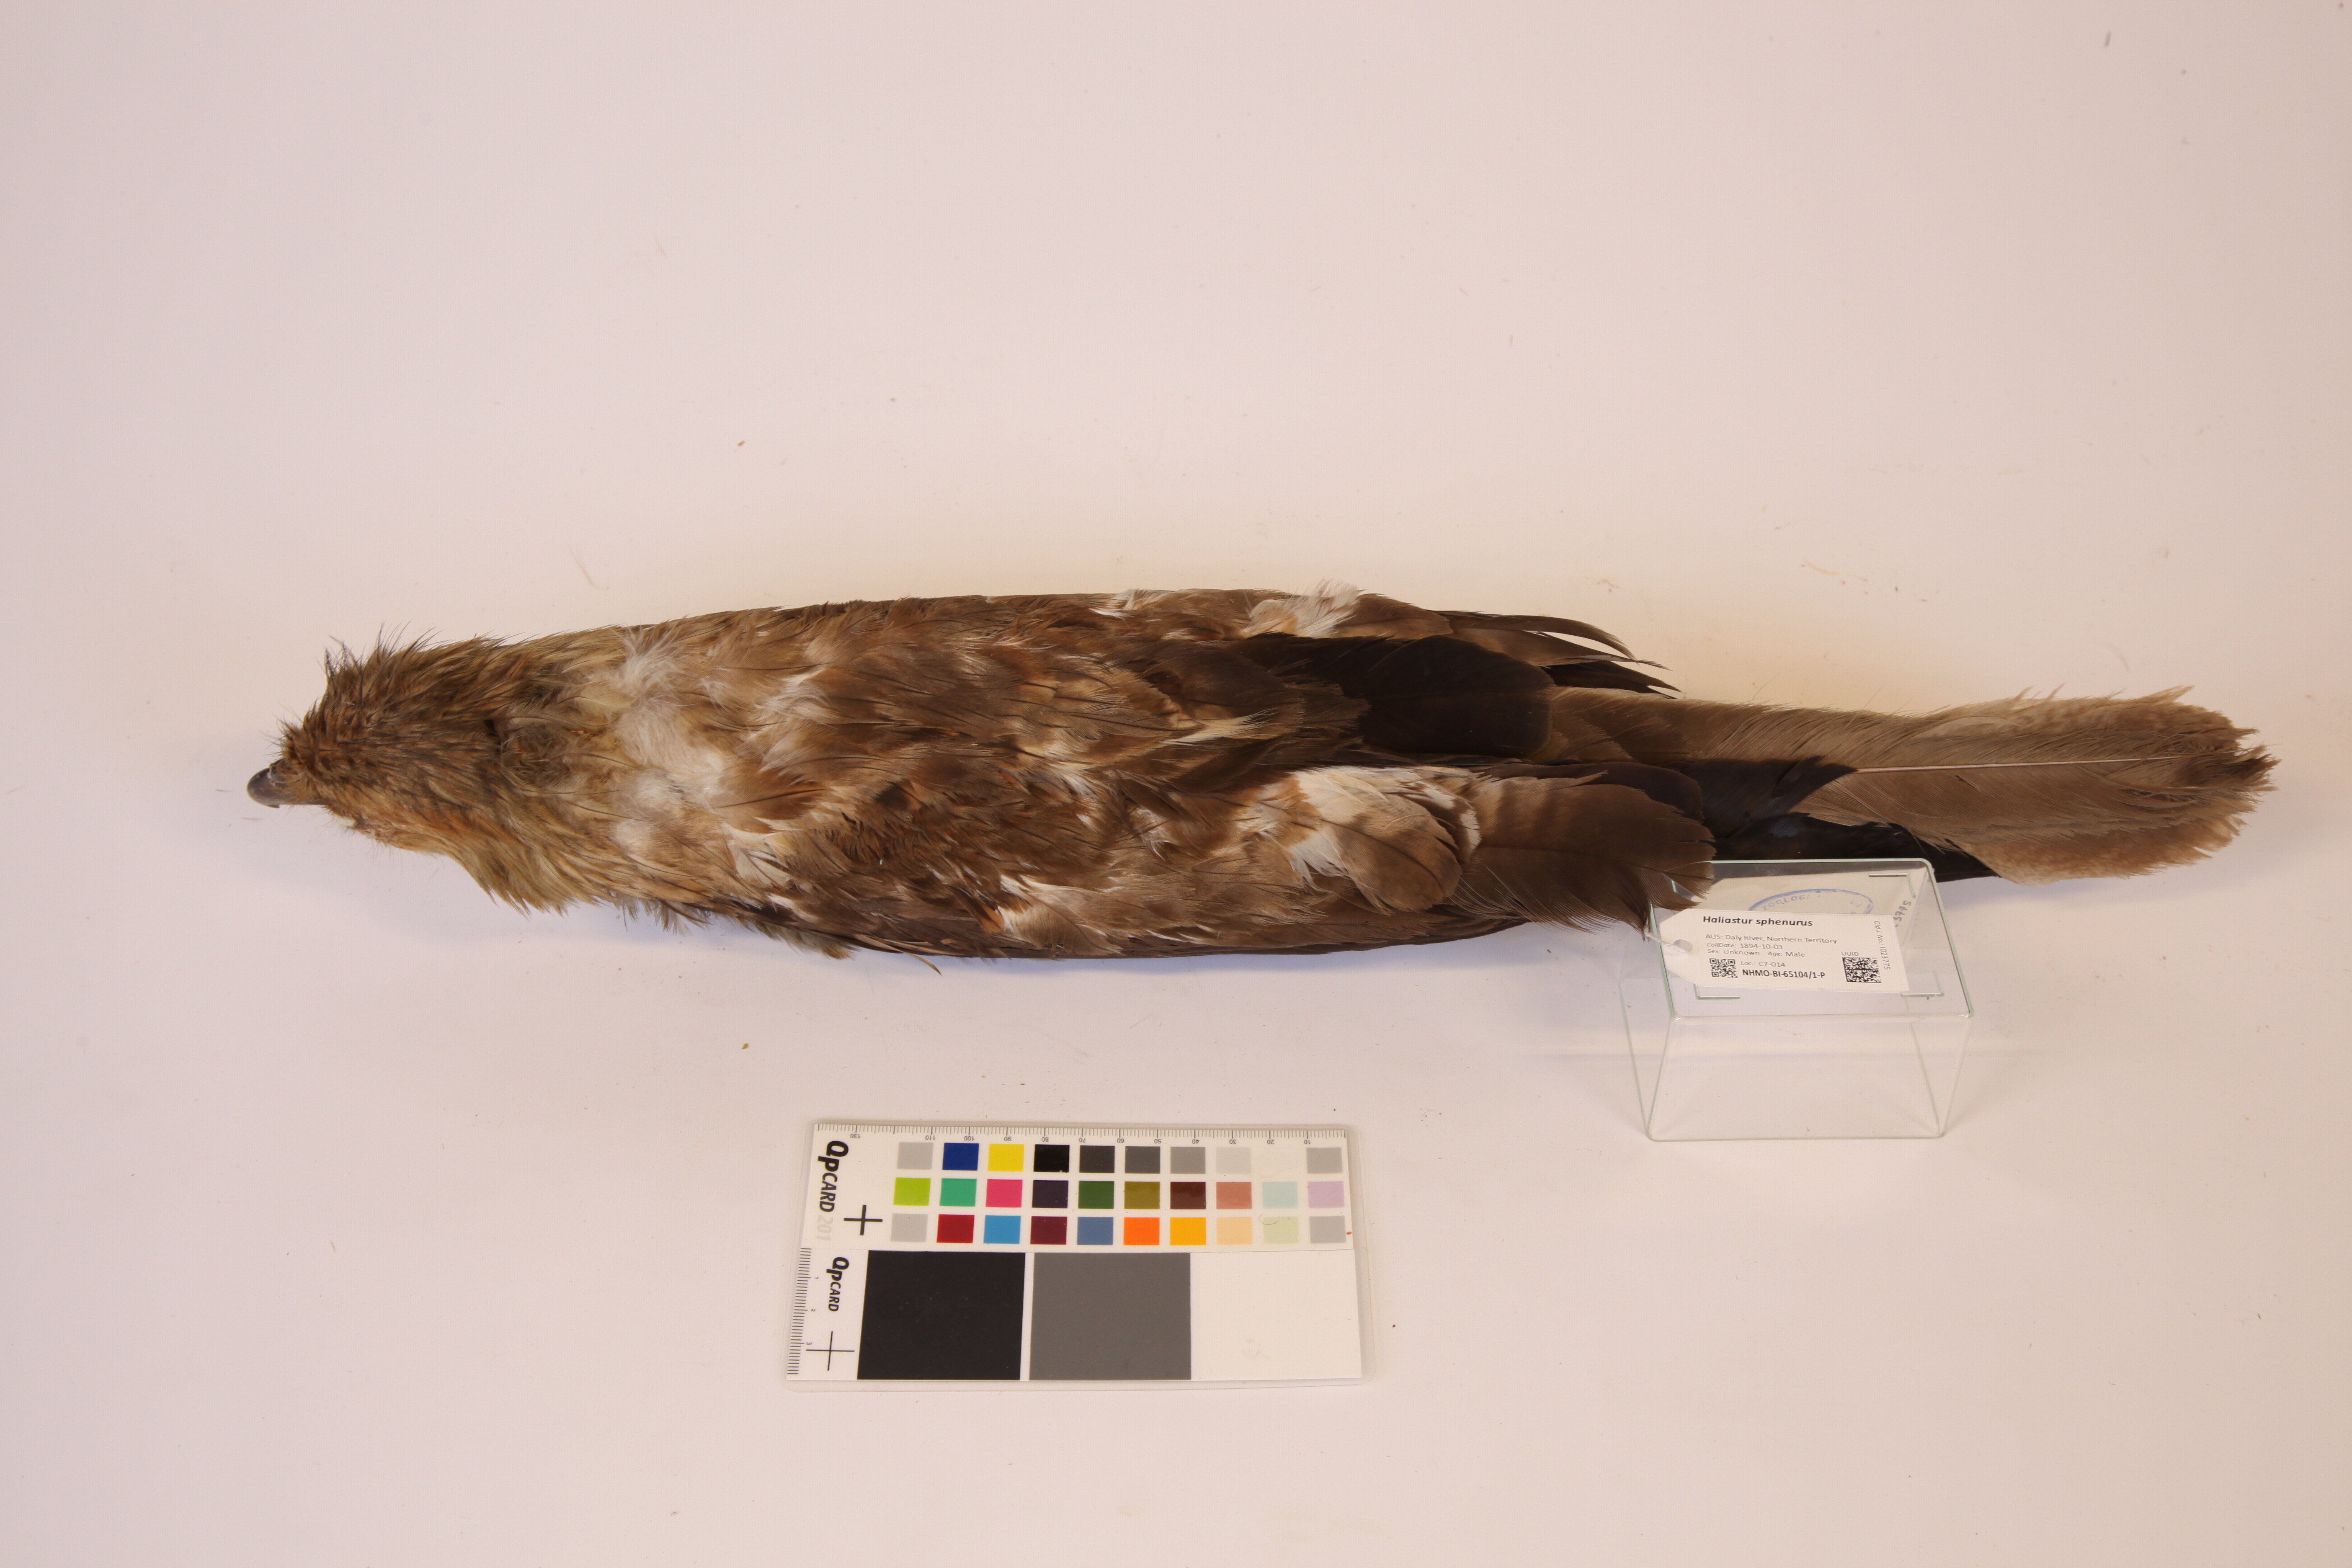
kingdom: Animalia
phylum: Chordata
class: Aves
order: Accipitriformes
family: Accipitridae
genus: Haliastur
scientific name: Haliastur sphenurus
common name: Whistling kite
